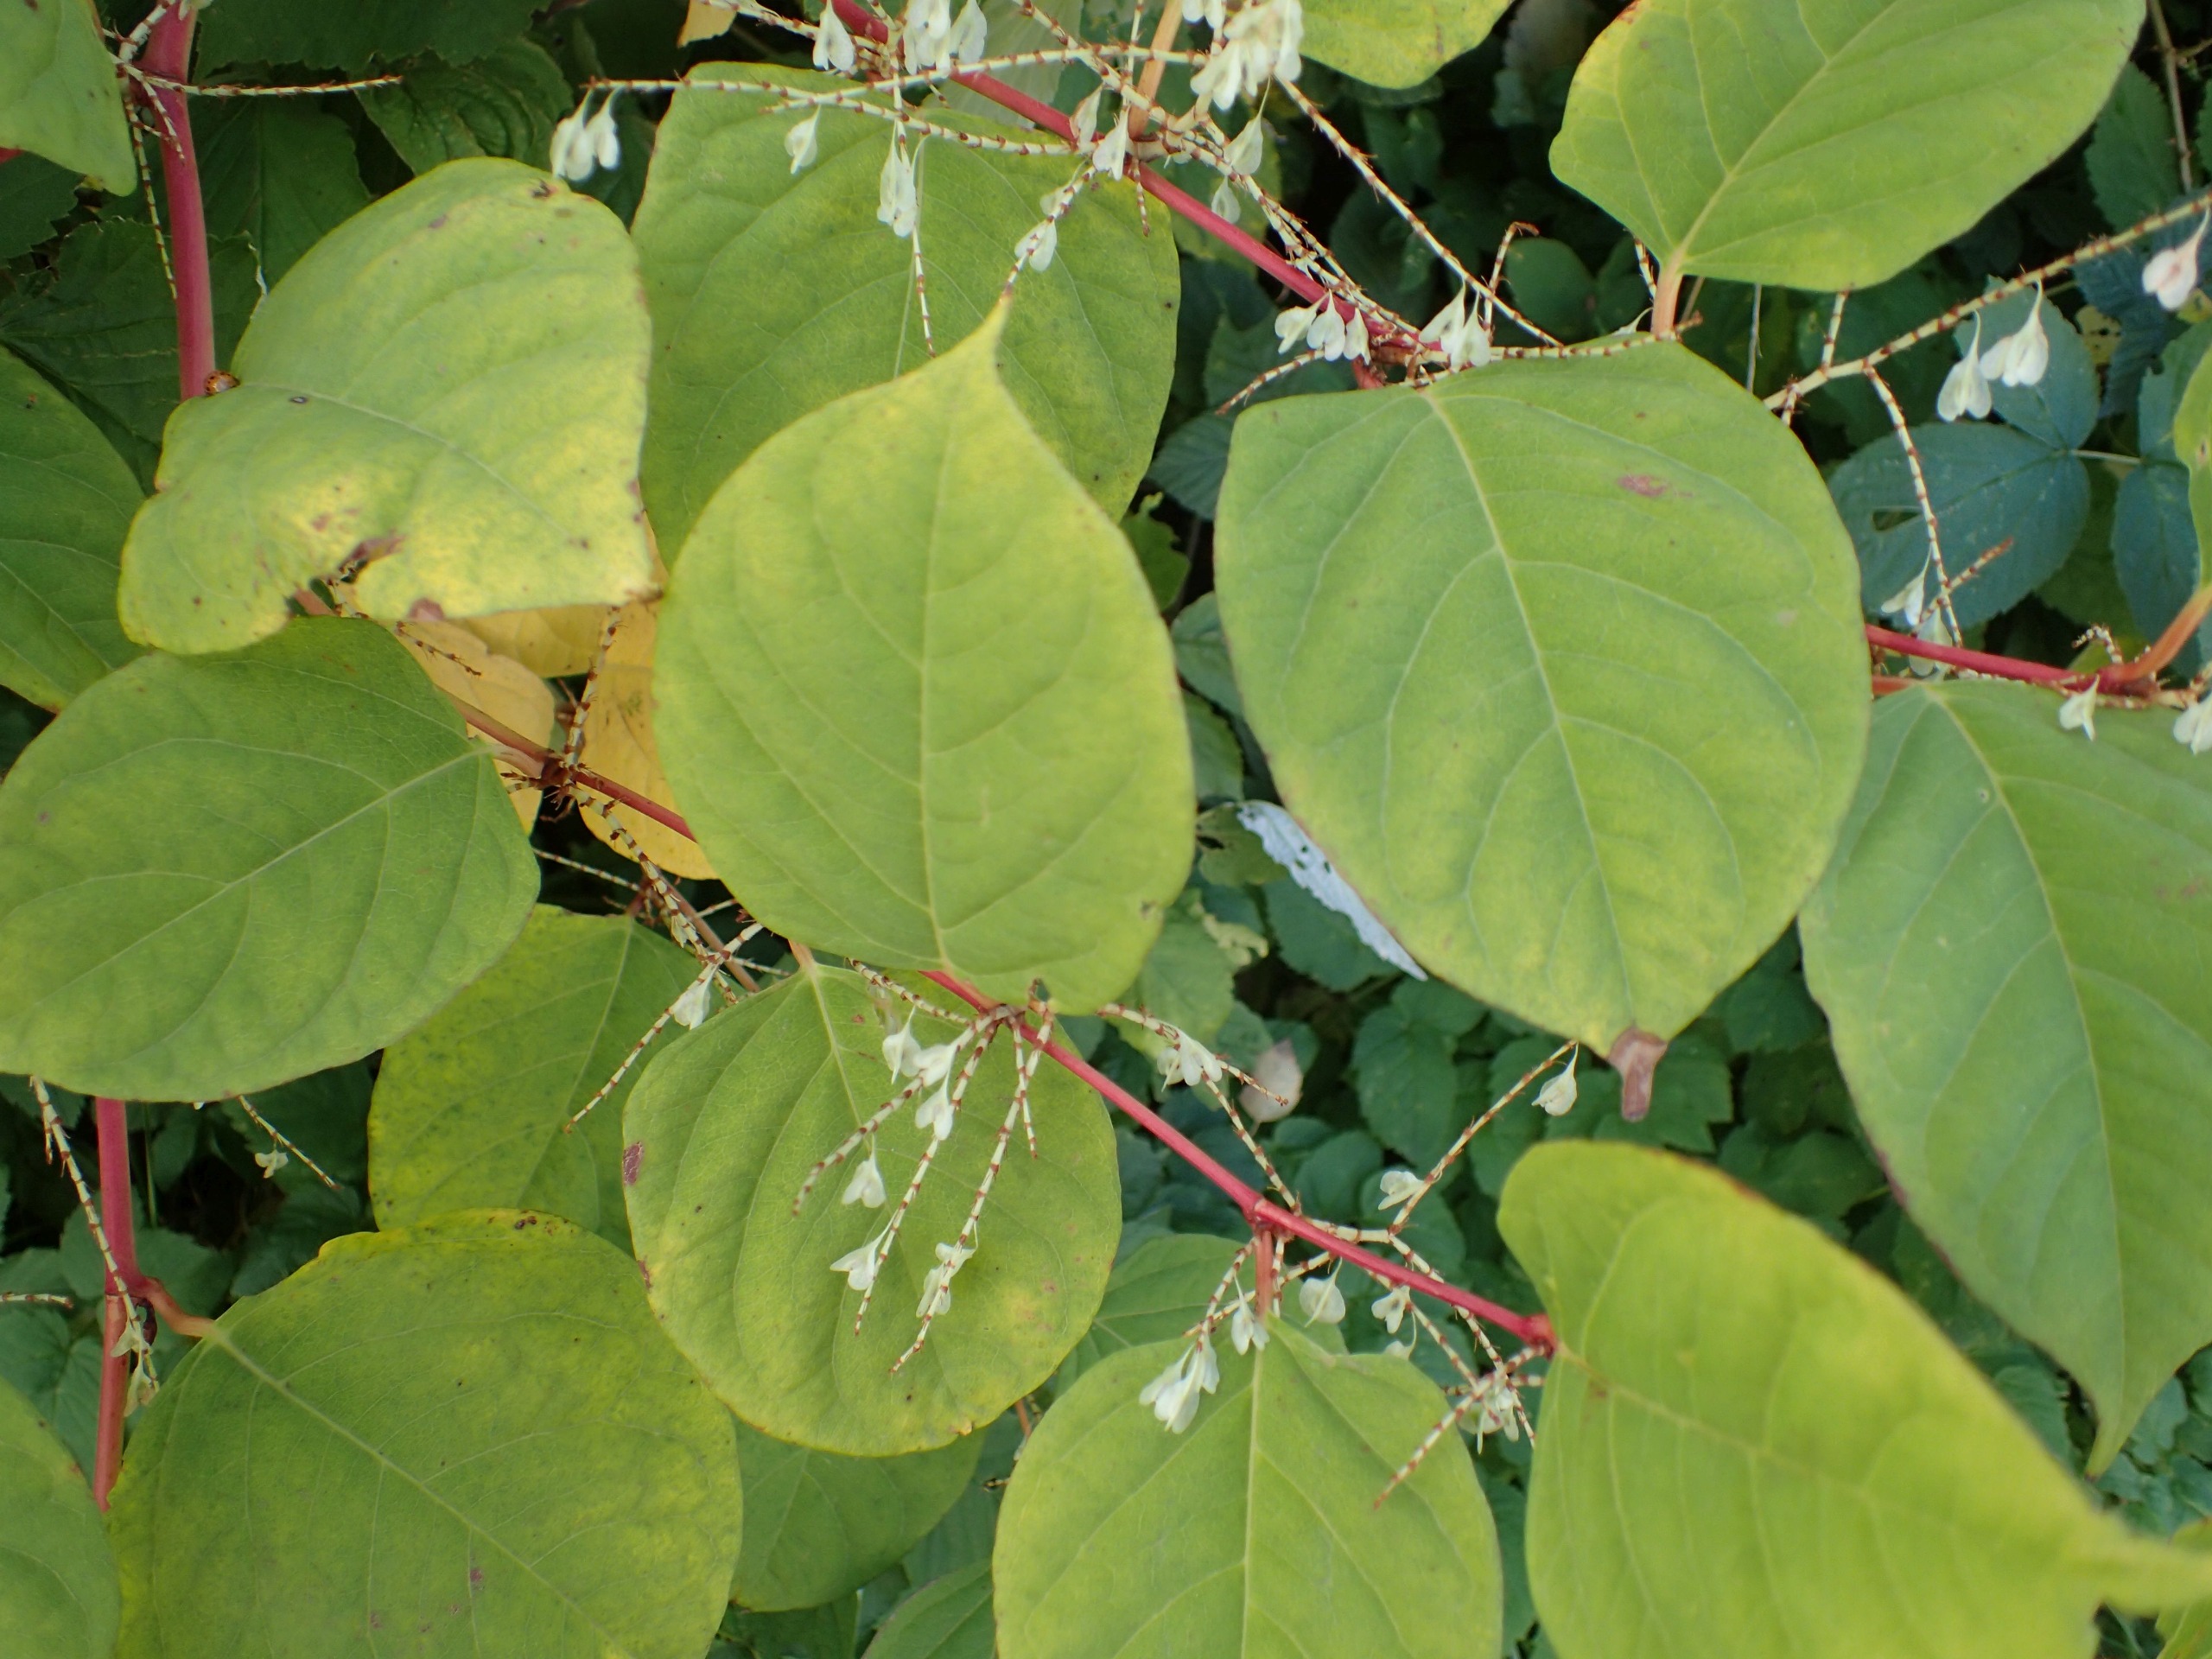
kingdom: Plantae
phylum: Tracheophyta
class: Magnoliopsida
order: Caryophyllales
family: Polygonaceae
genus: Reynoutria
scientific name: Reynoutria japonica
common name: Japan-pileurt
